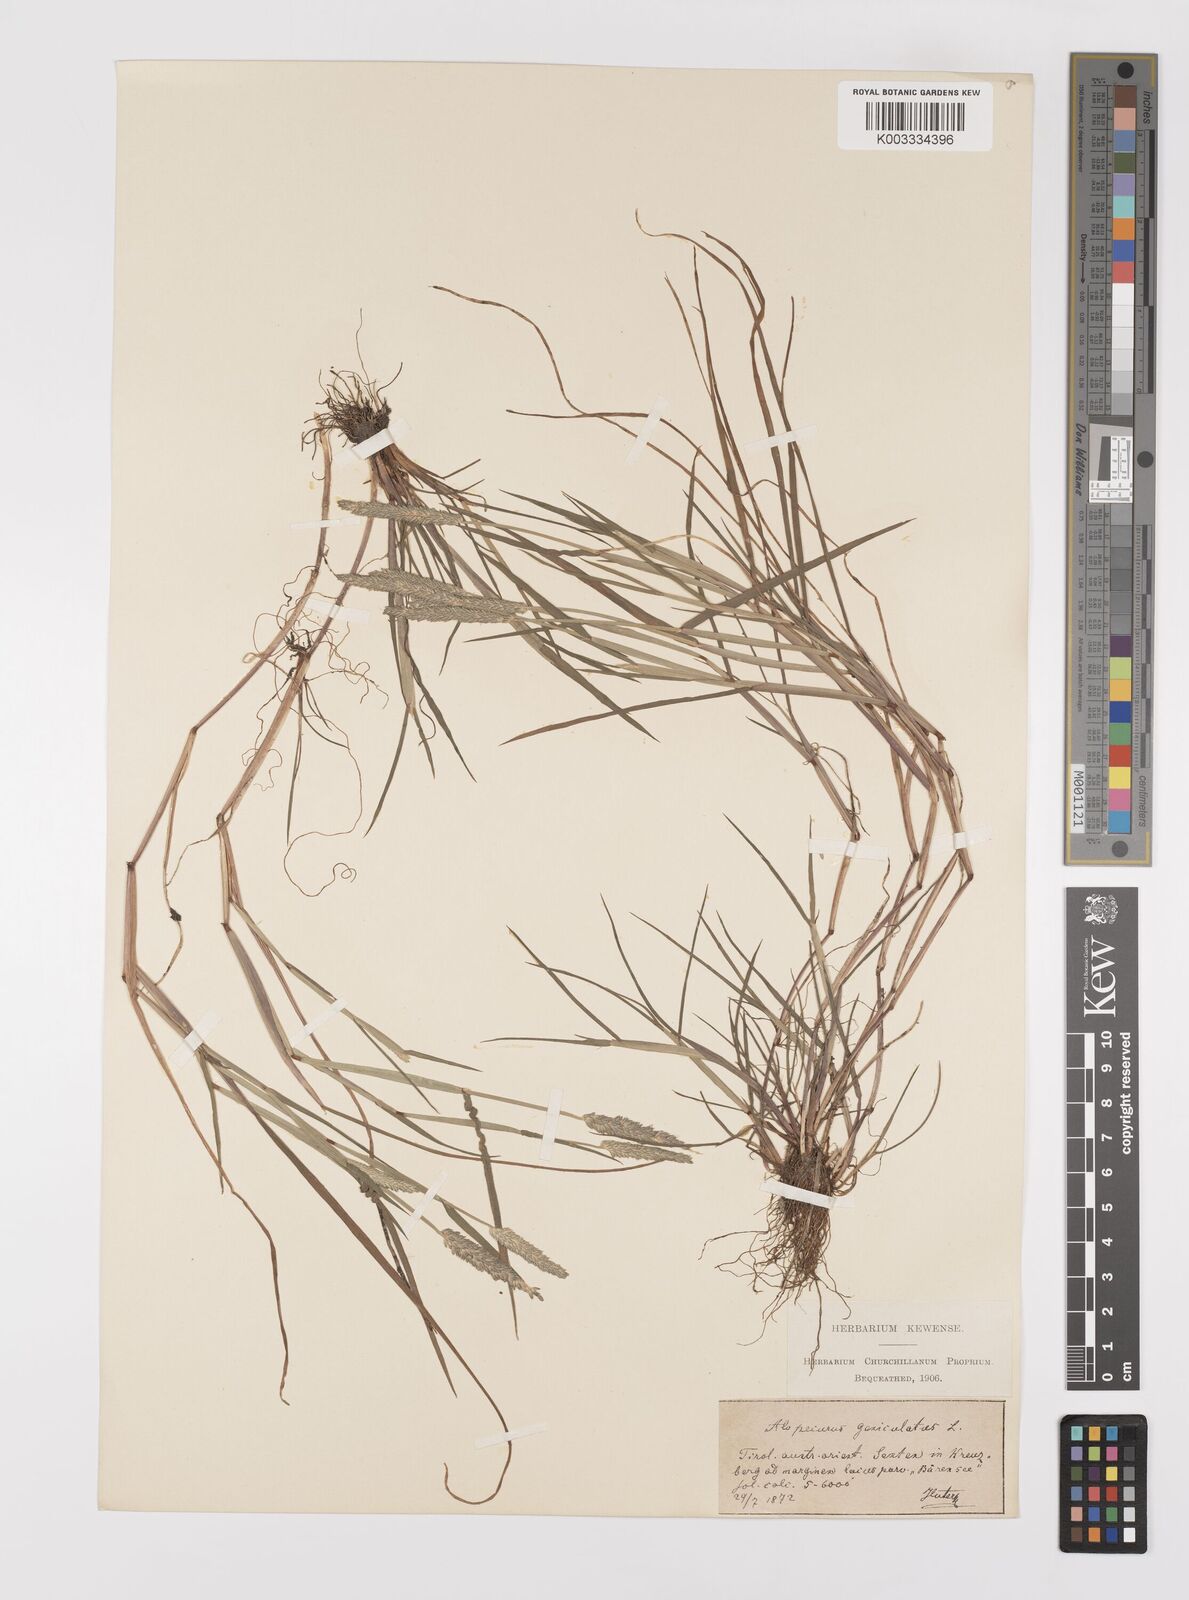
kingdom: Plantae
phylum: Tracheophyta
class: Liliopsida
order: Poales
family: Poaceae
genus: Alopecurus
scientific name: Alopecurus aequalis
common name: Orange foxtail
